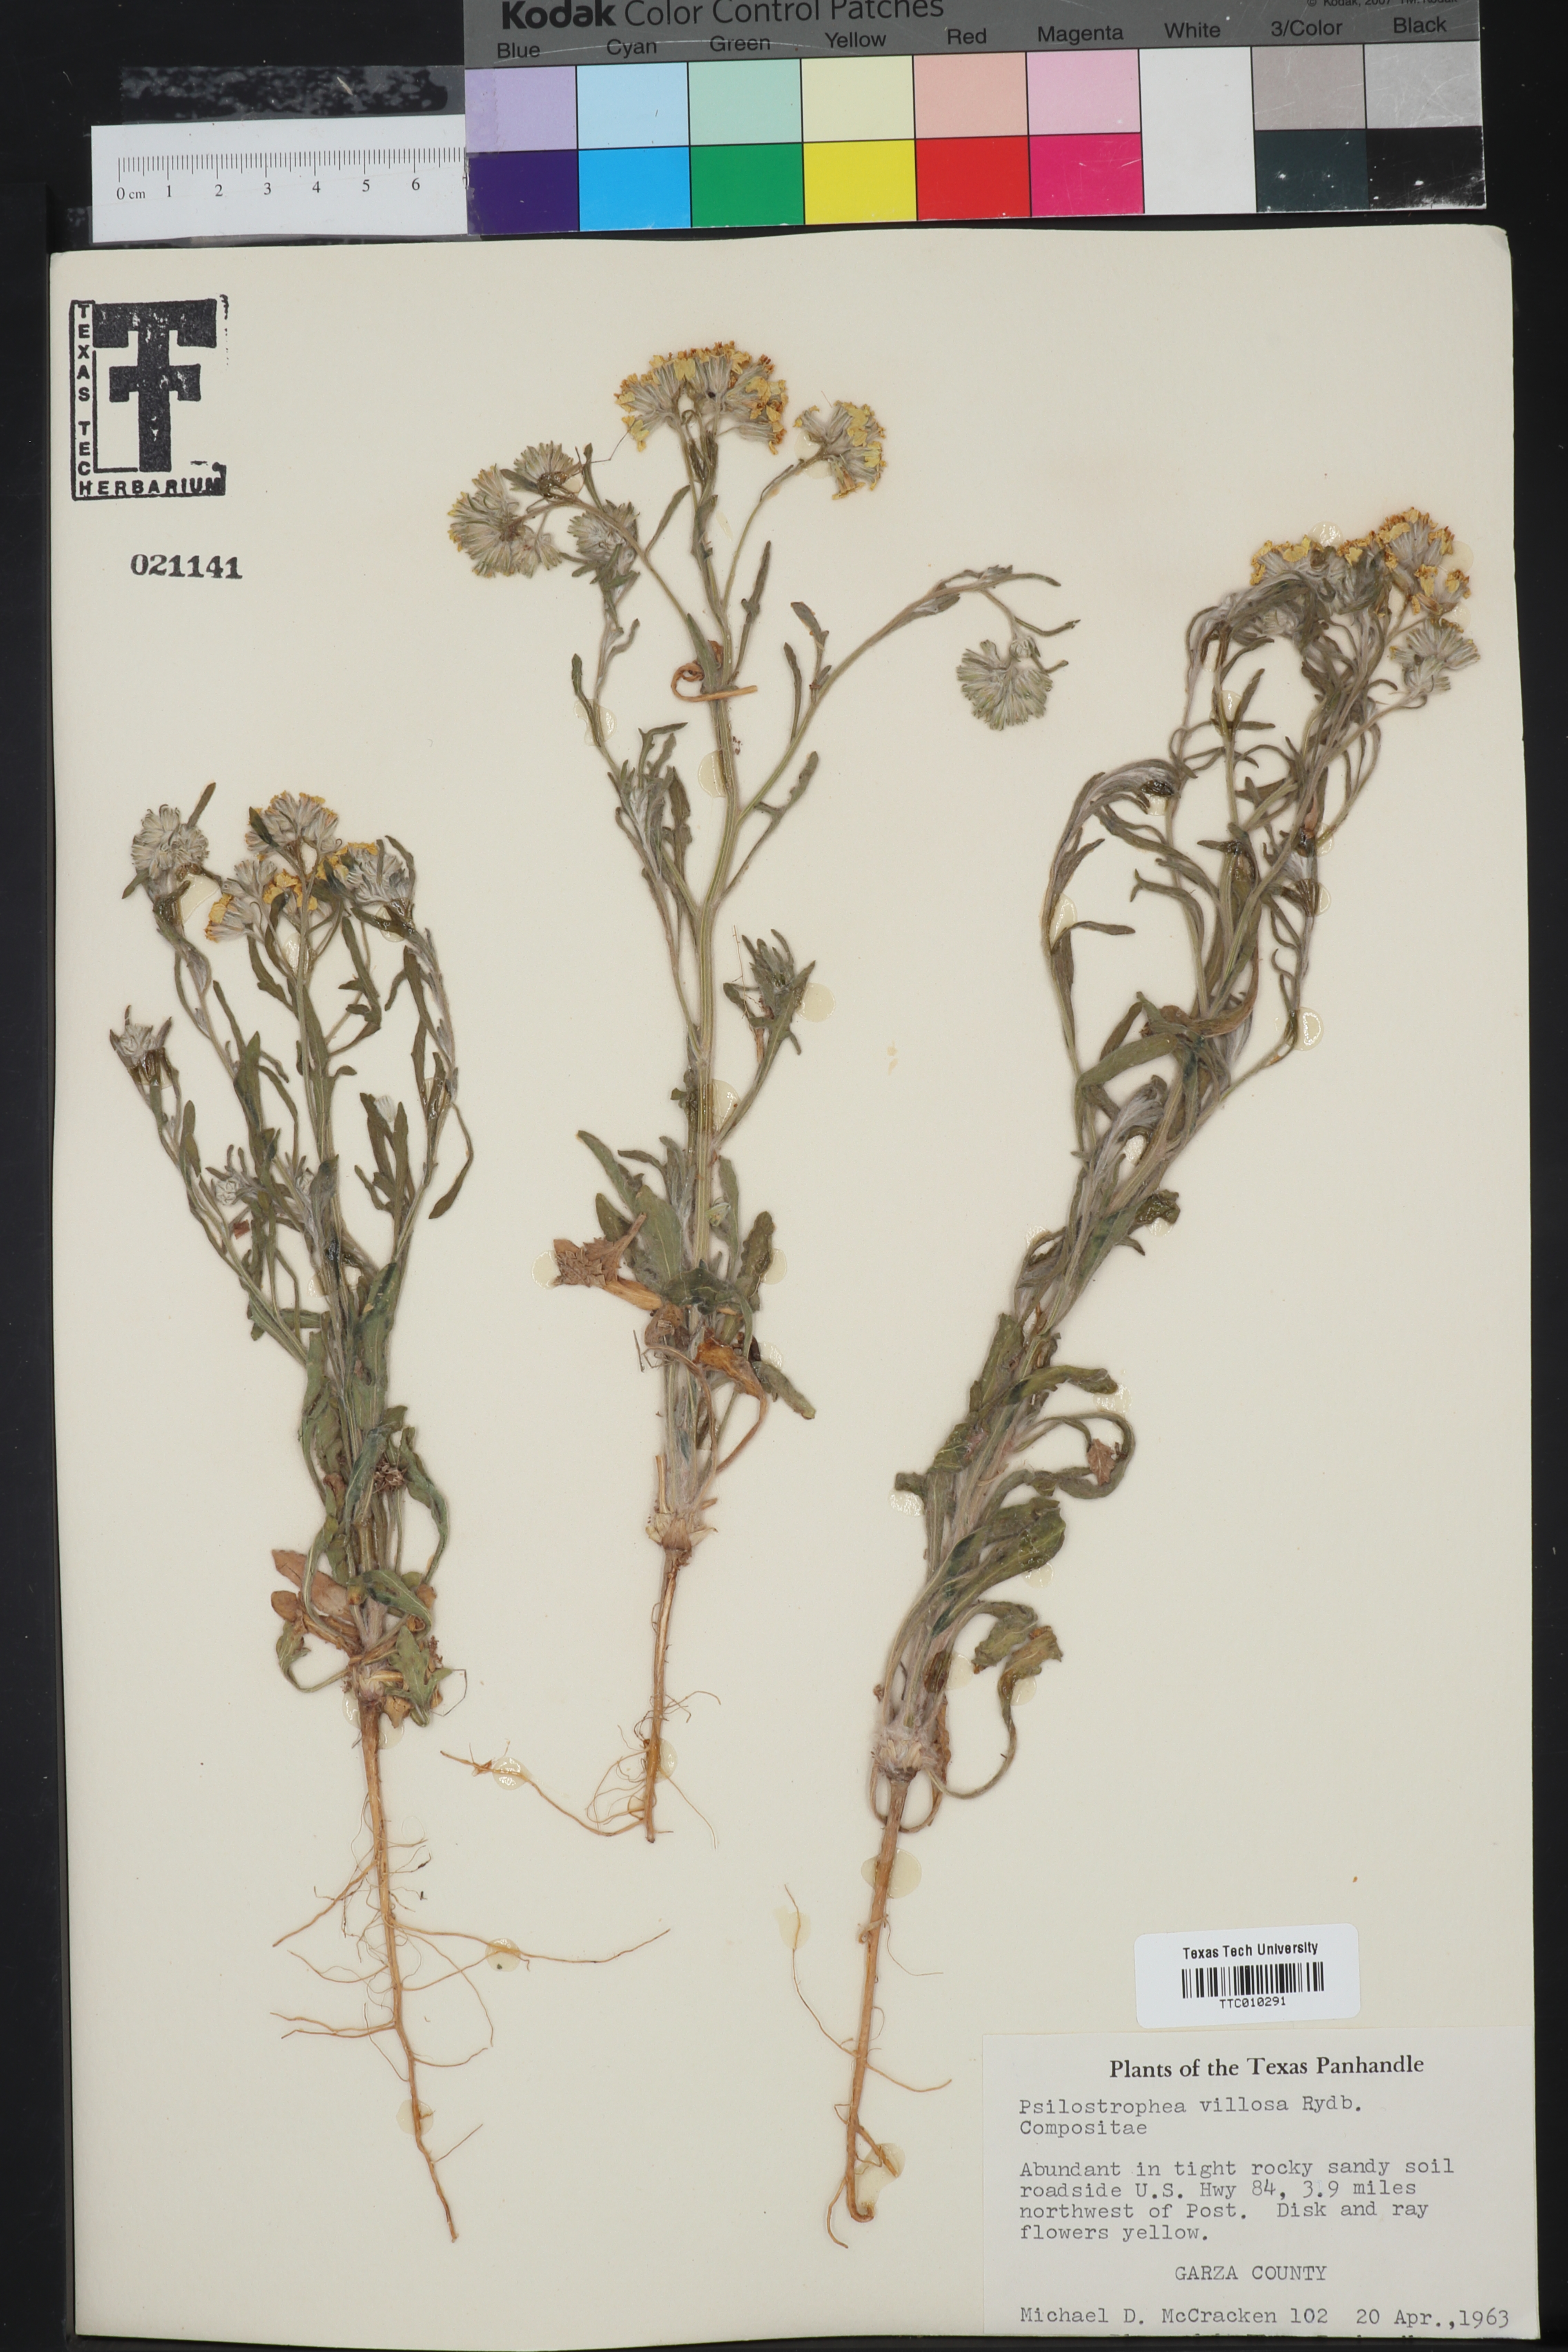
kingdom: Plantae
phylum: Tracheophyta
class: Magnoliopsida
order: Asterales
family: Asteraceae
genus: Psilostrophe
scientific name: Psilostrophe villosa
